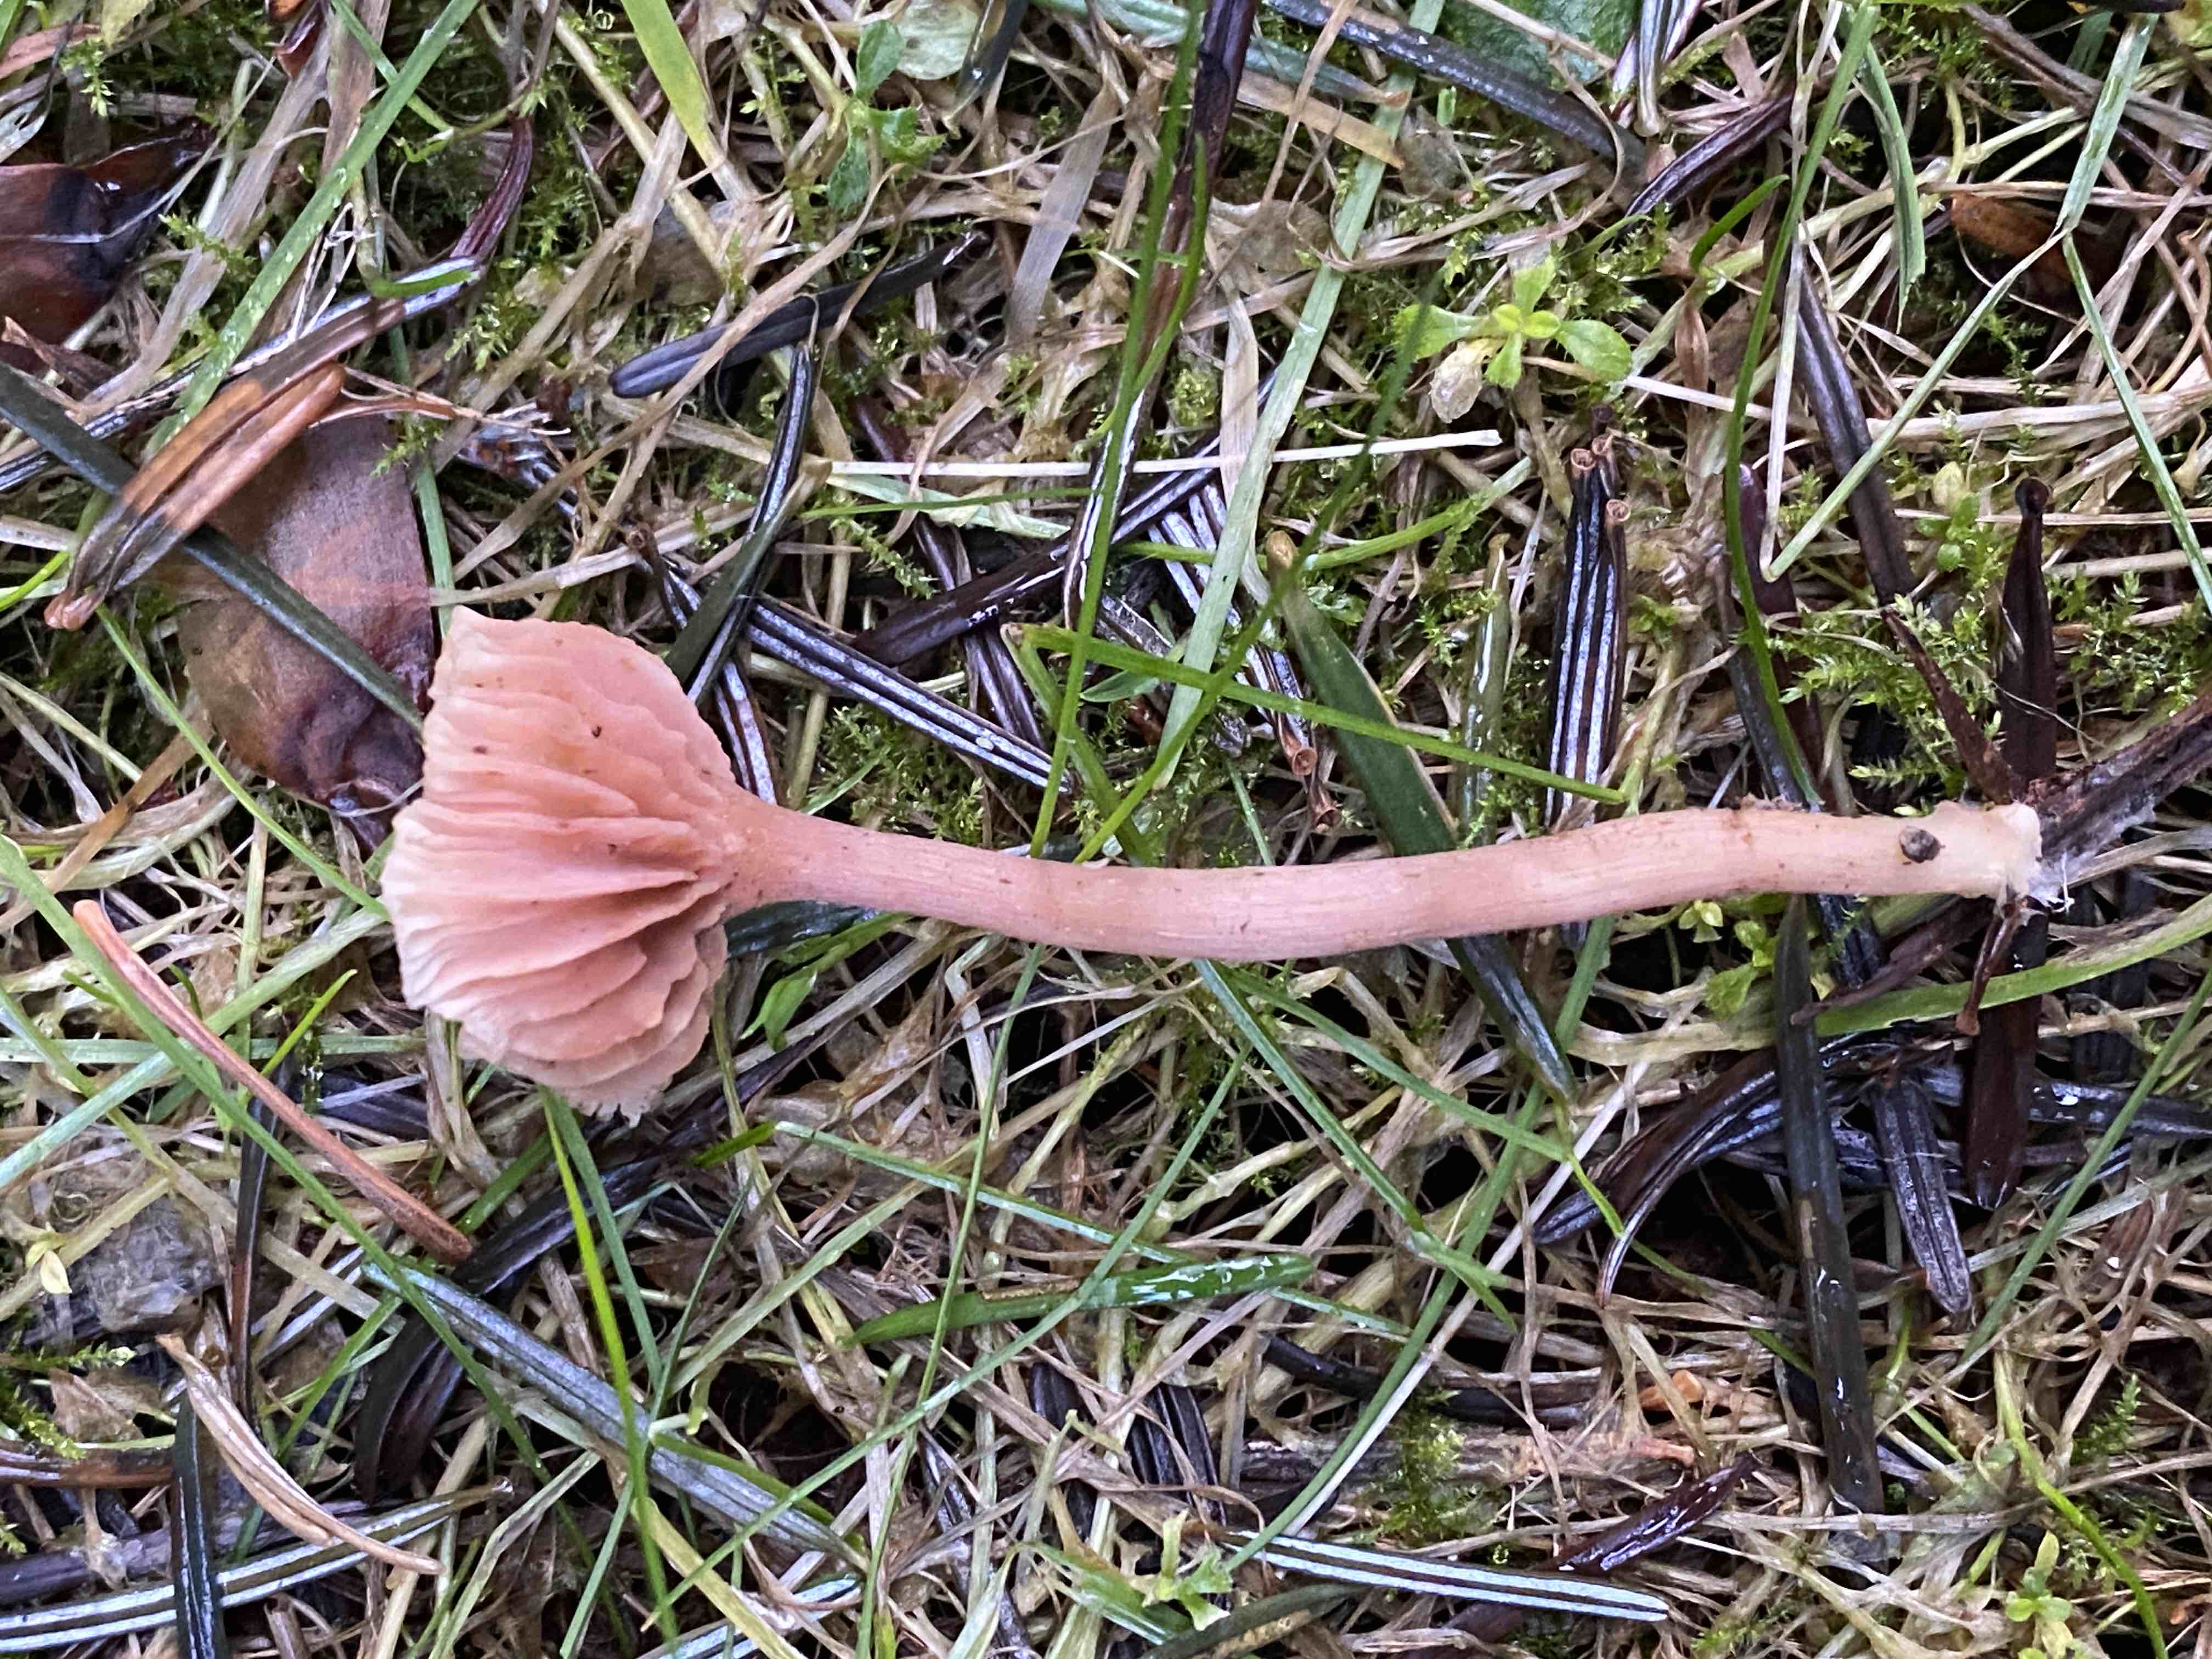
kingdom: Fungi
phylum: Basidiomycota
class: Agaricomycetes
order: Agaricales
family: Hydnangiaceae
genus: Laccaria
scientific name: Laccaria laccata
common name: rød ametysthat
